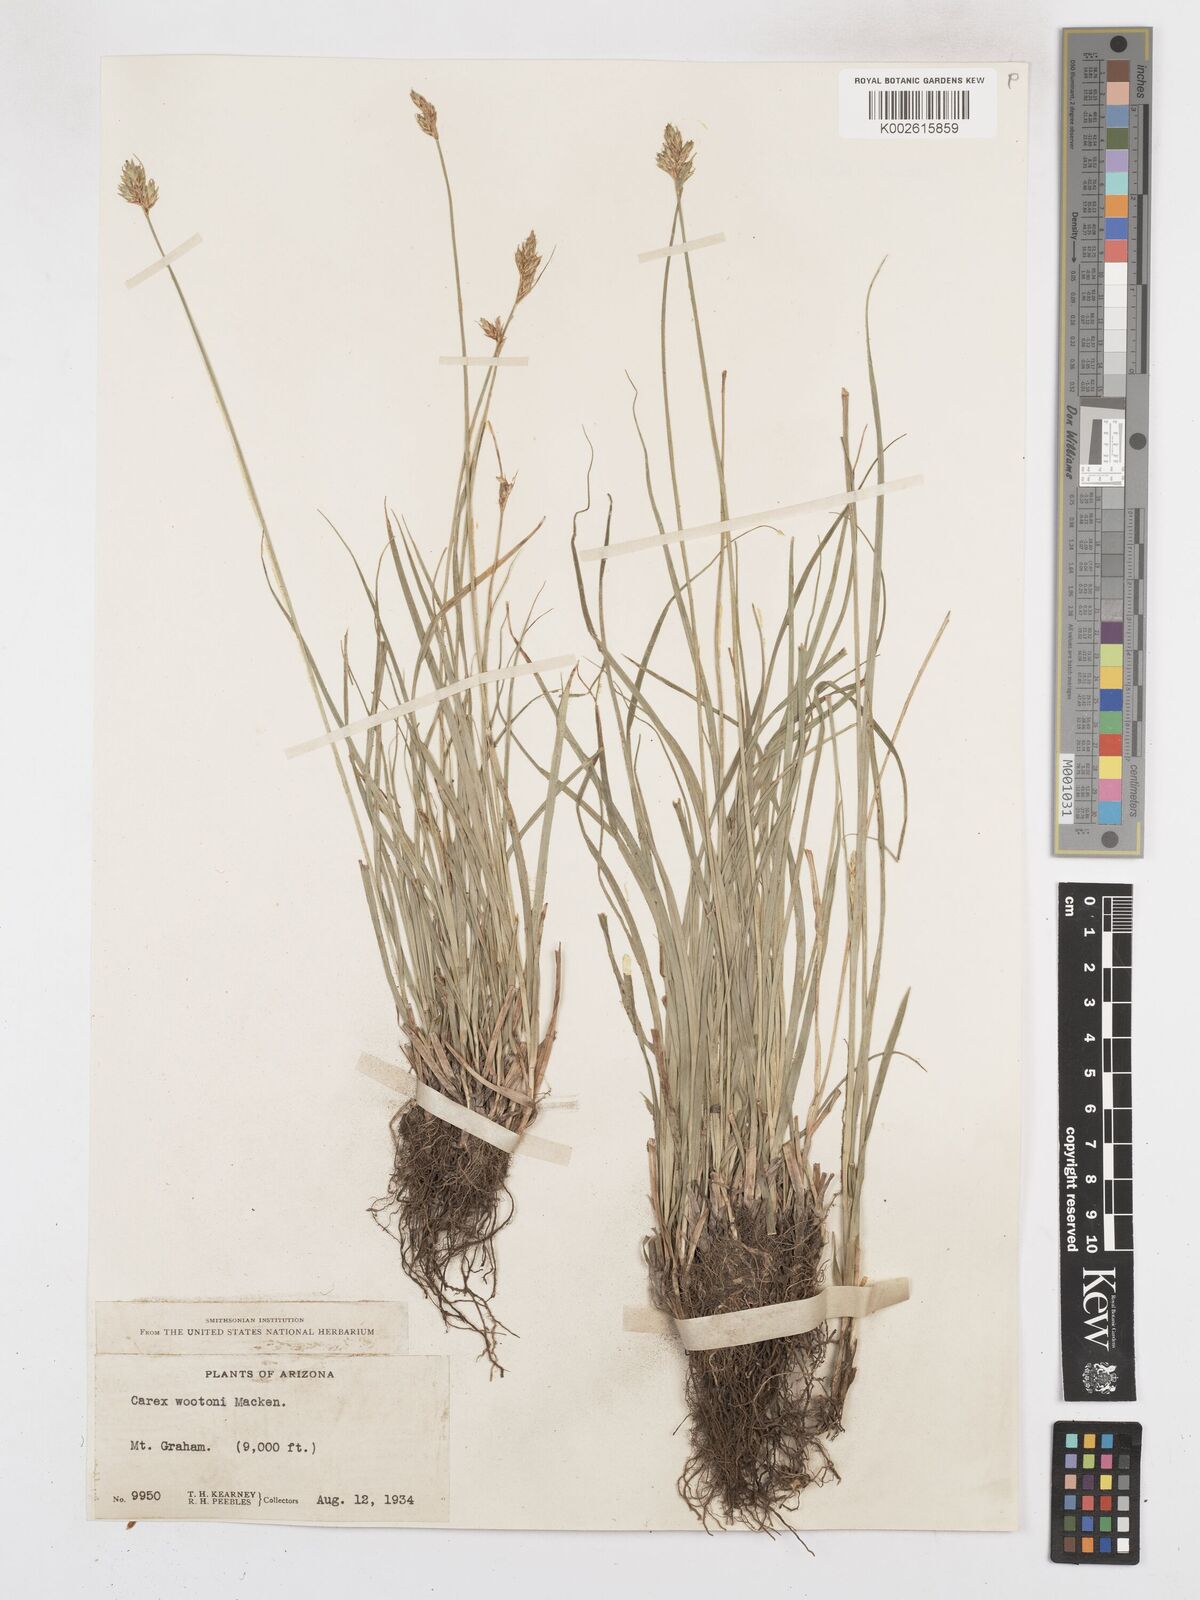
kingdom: Plantae
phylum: Tracheophyta
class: Liliopsida
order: Poales
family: Cyperaceae
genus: Carex
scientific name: Carex wootonii
